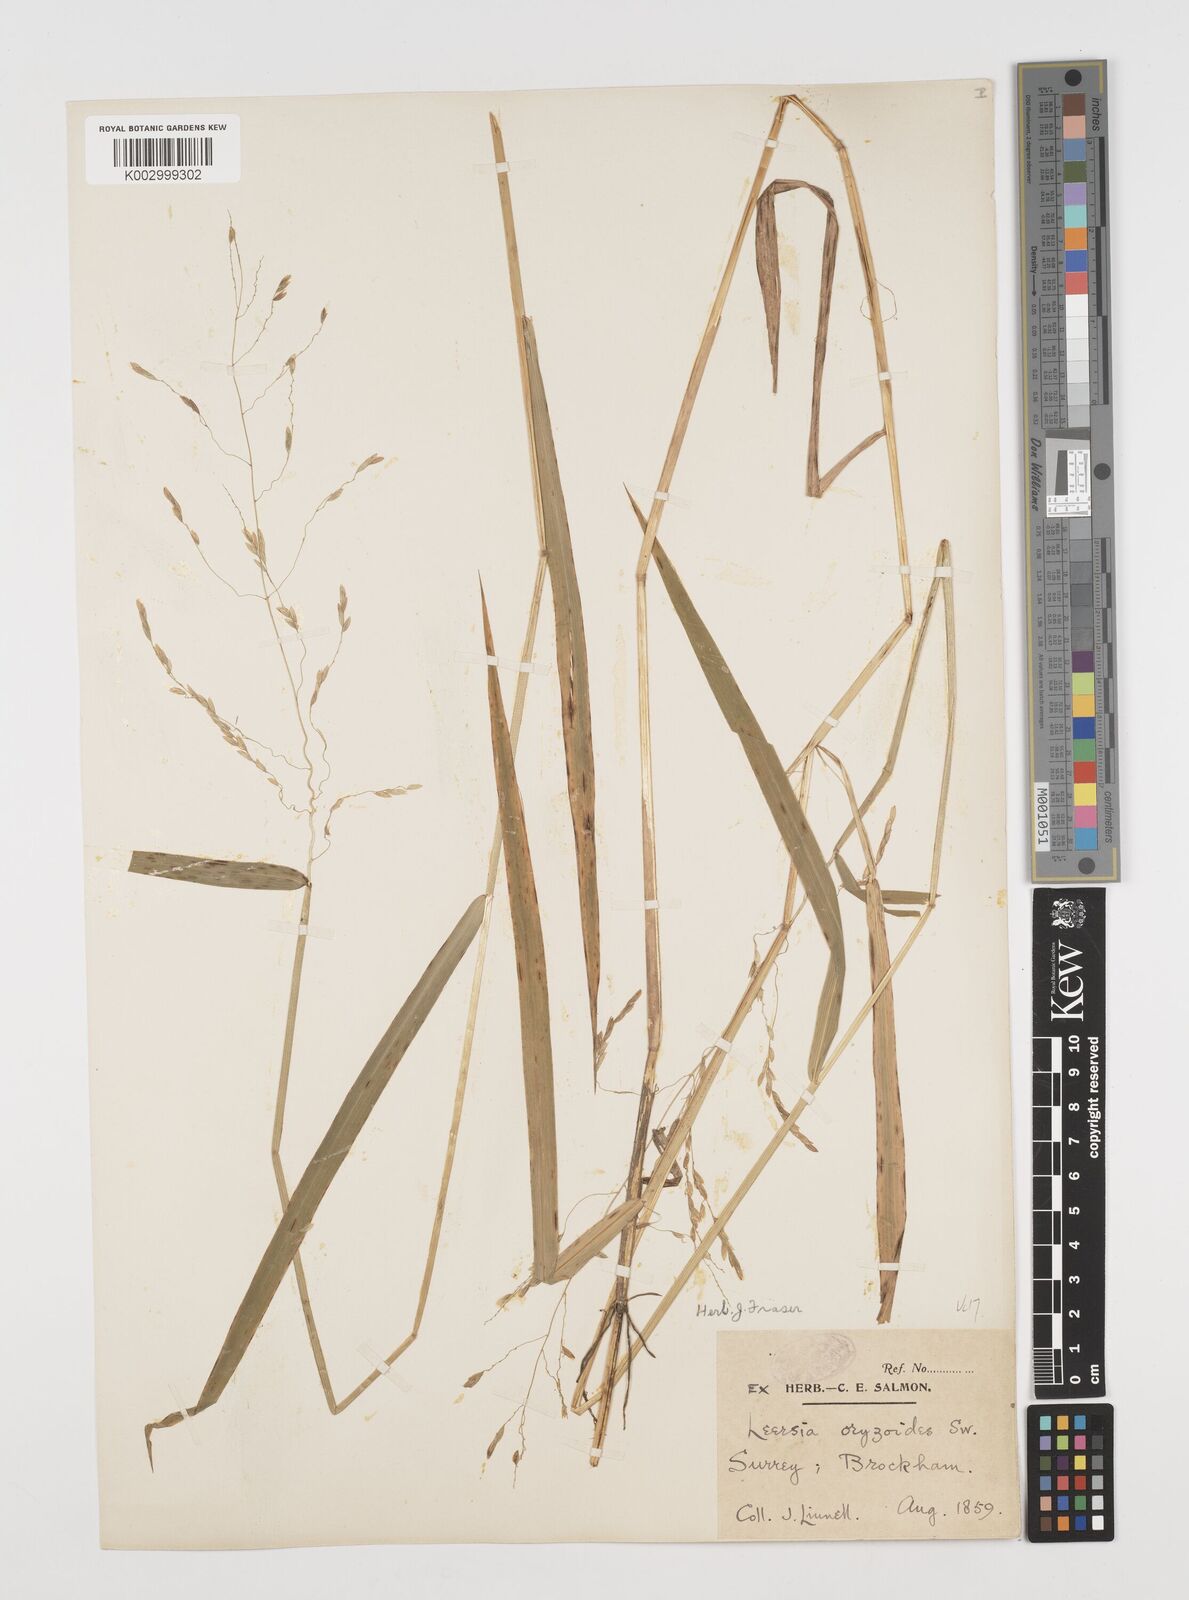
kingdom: Plantae
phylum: Tracheophyta
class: Liliopsida
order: Poales
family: Poaceae
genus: Leersia
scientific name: Leersia oryzoides
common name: Cut-grass
